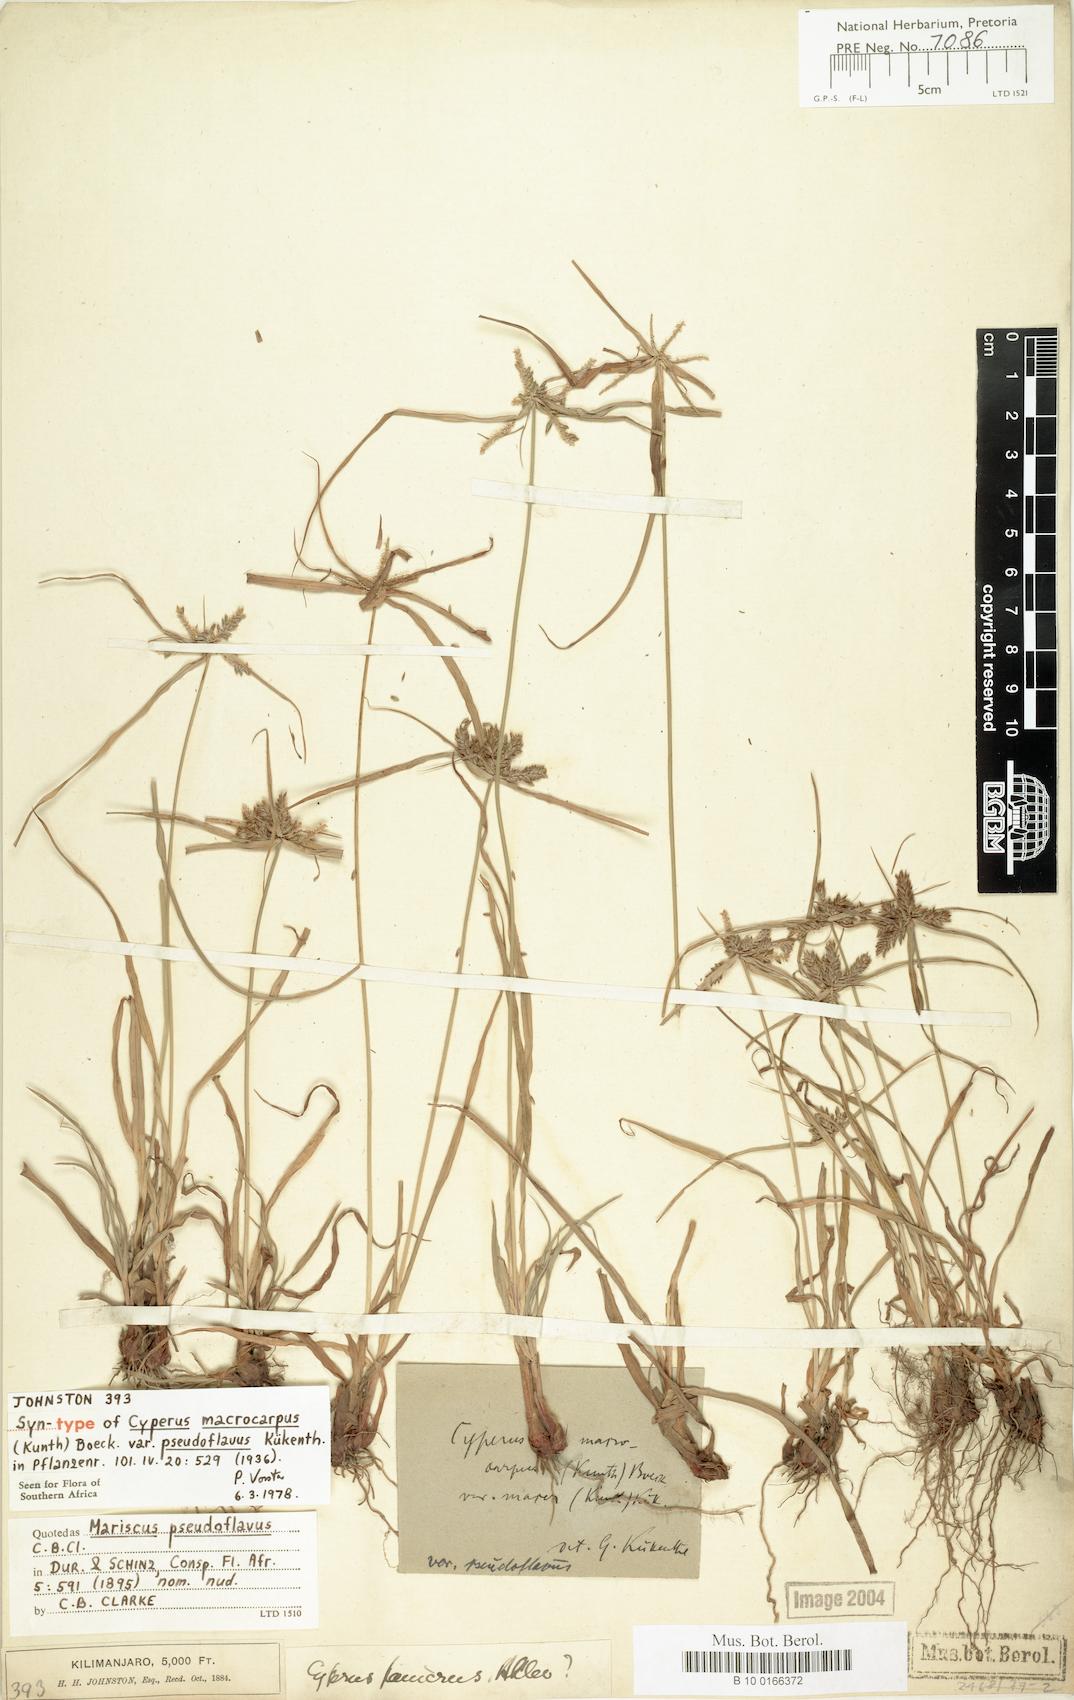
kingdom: Plantae
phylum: Tracheophyta
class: Liliopsida
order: Poales
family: Cyperaceae
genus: Cyperus
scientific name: Cyperus pseudoflavus
